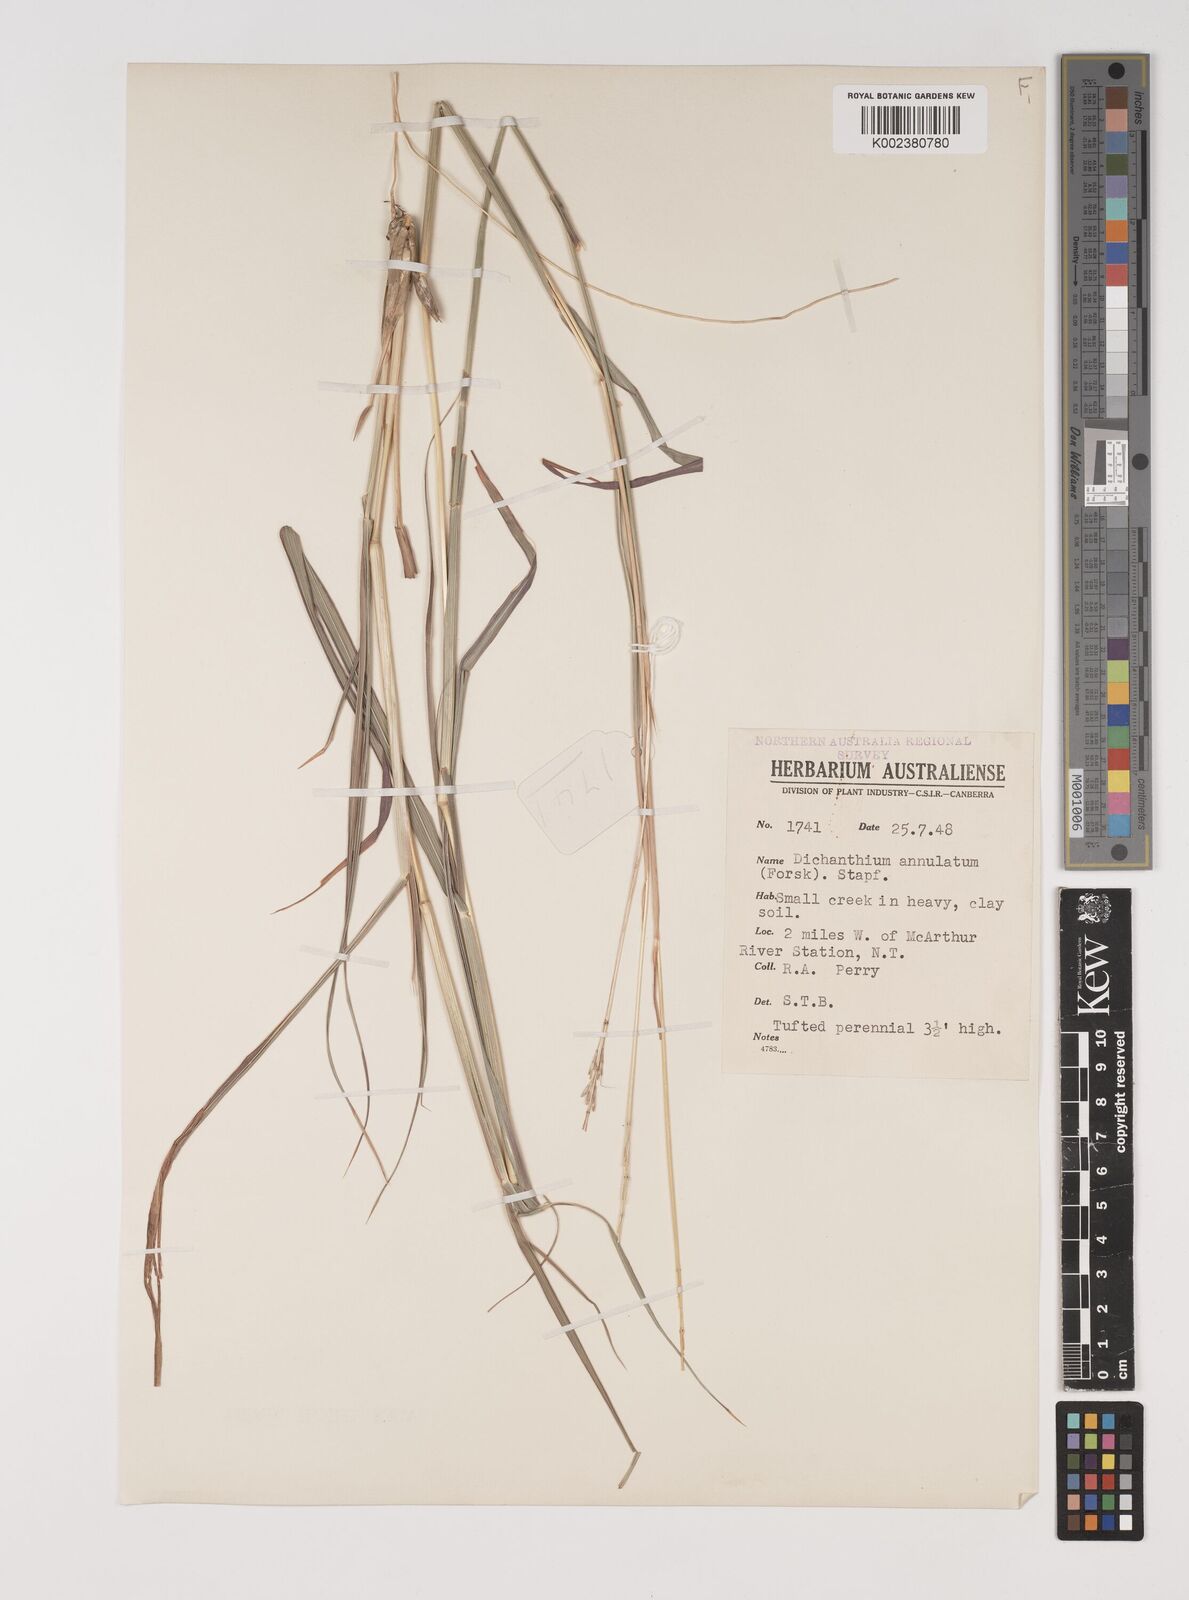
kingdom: Plantae
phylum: Tracheophyta
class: Liliopsida
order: Poales
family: Poaceae
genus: Bothriochloa
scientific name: Bothriochloa bladhii
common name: Caucasian bluestem
